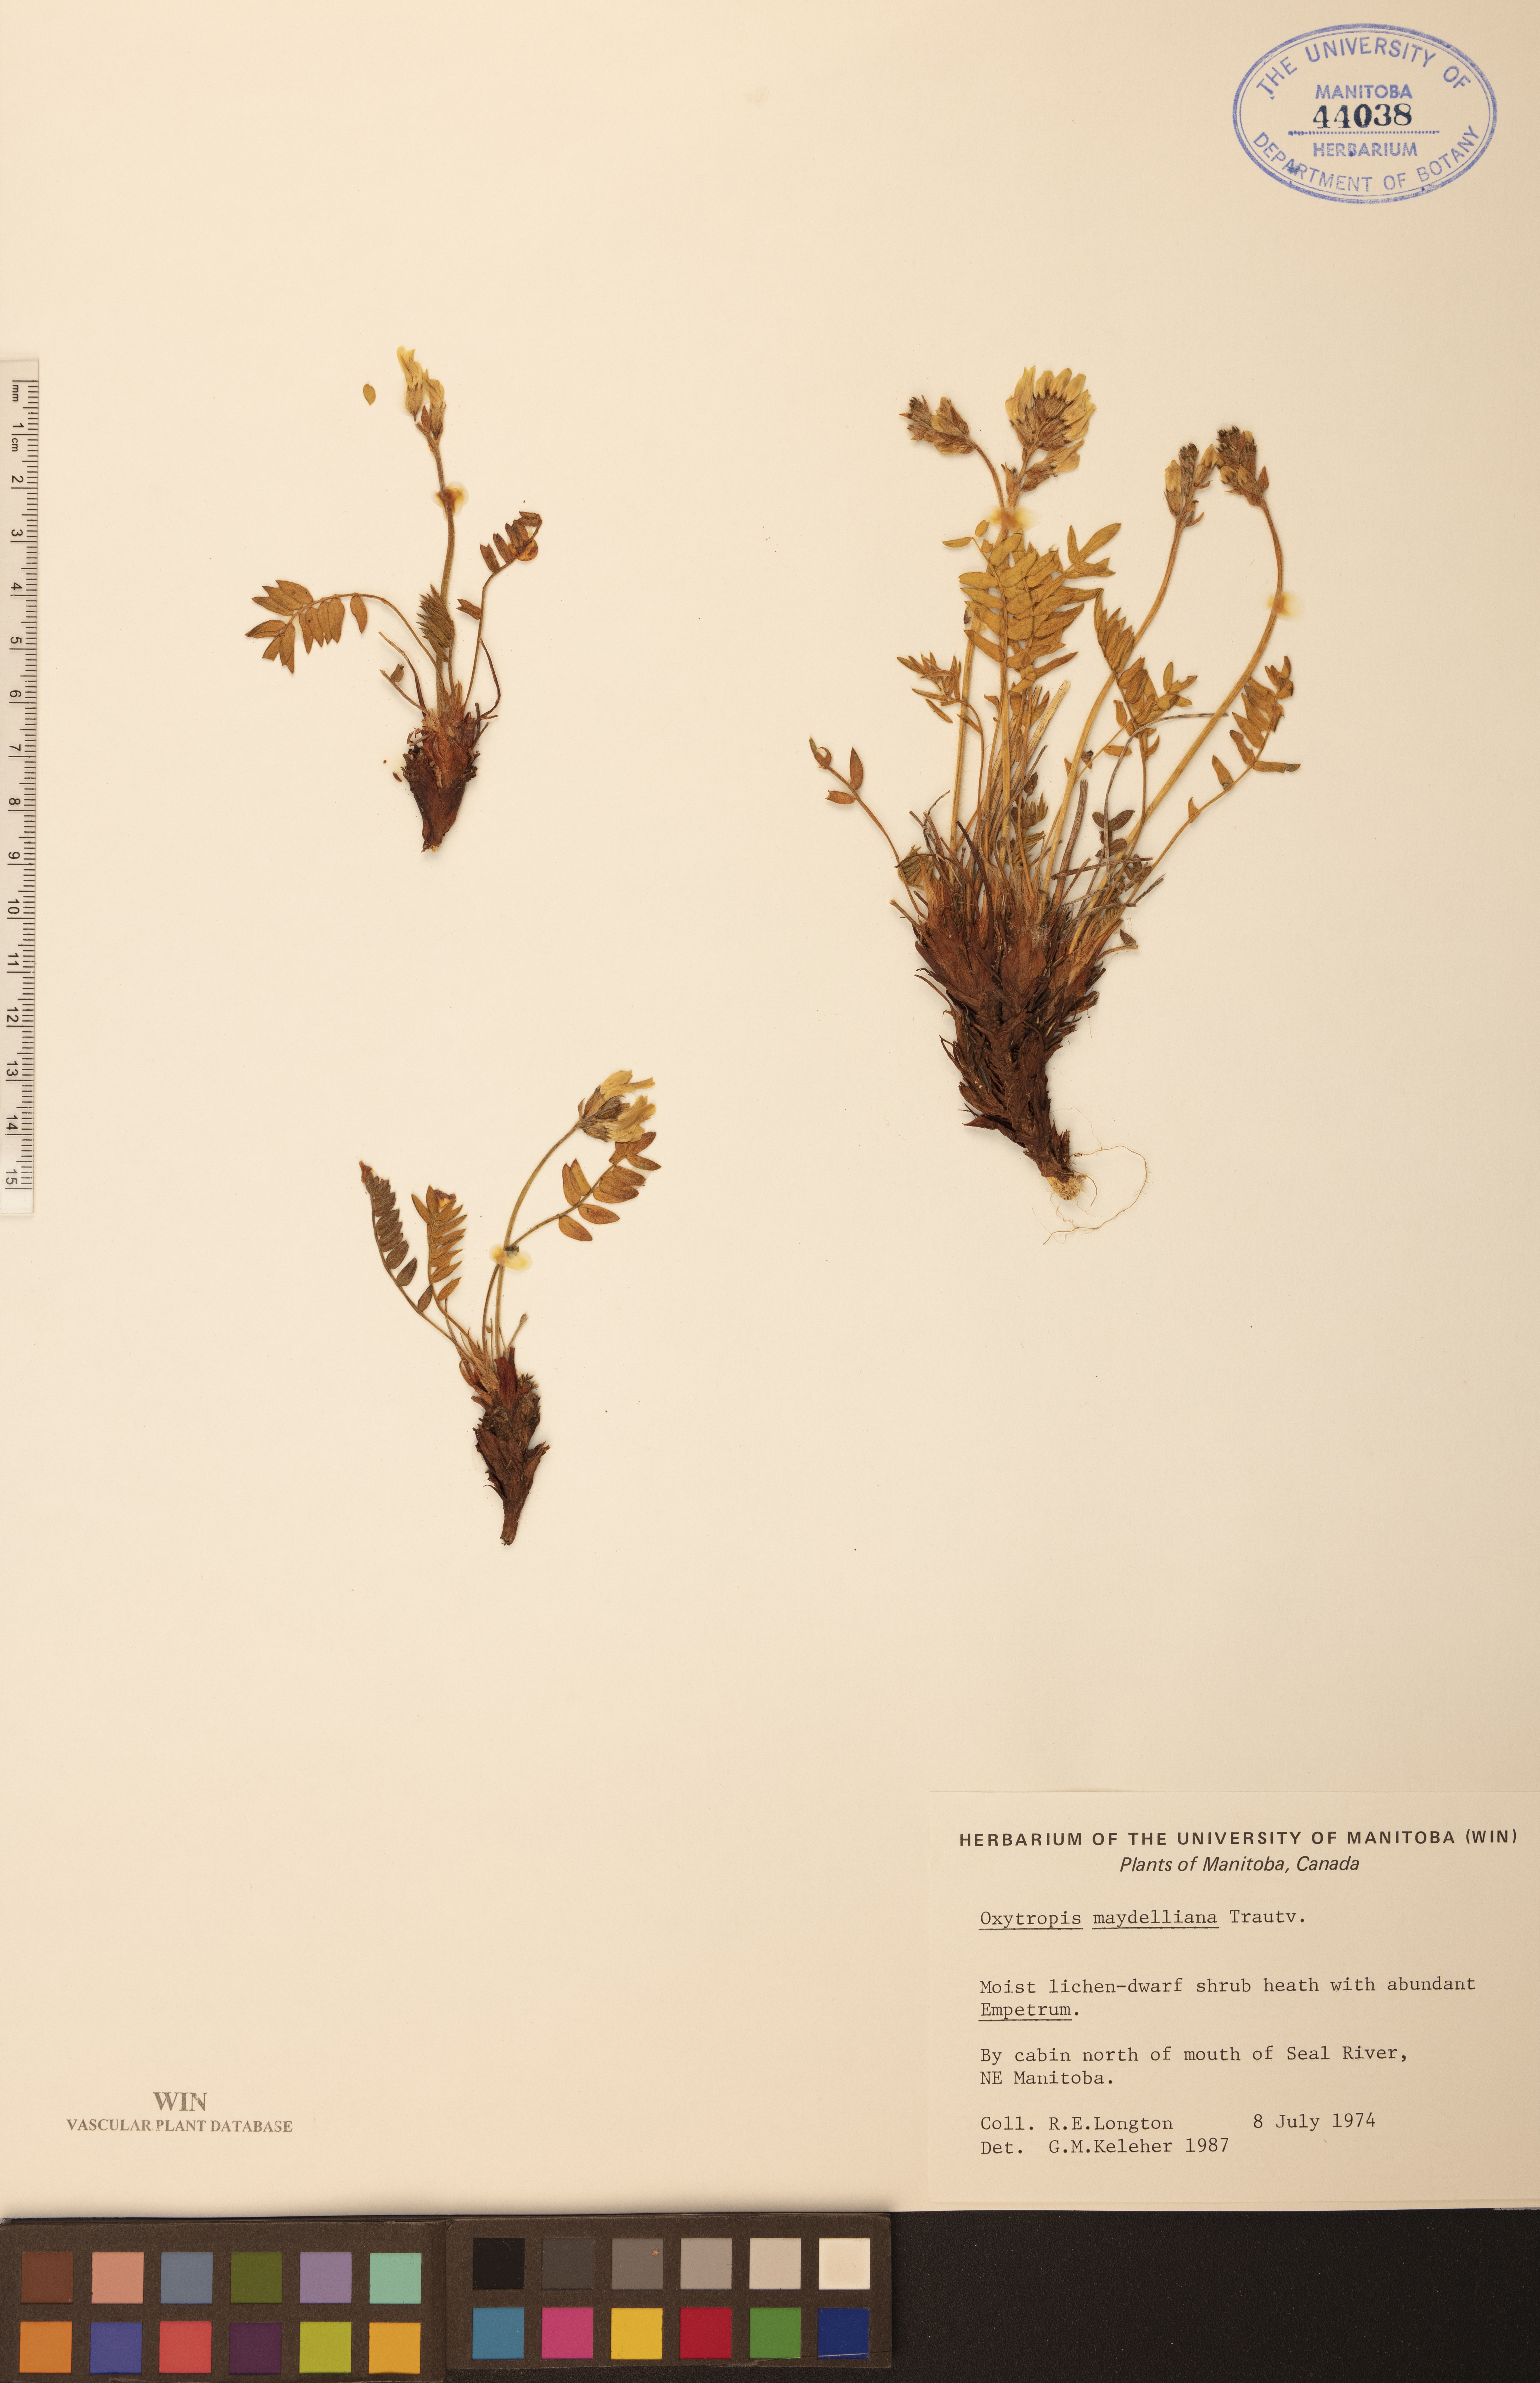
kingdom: Plantae
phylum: Tracheophyta
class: Magnoliopsida
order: Fabales
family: Fabaceae
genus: Oxytropis
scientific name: Oxytropis maydelliana
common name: Maydell's locoweed
